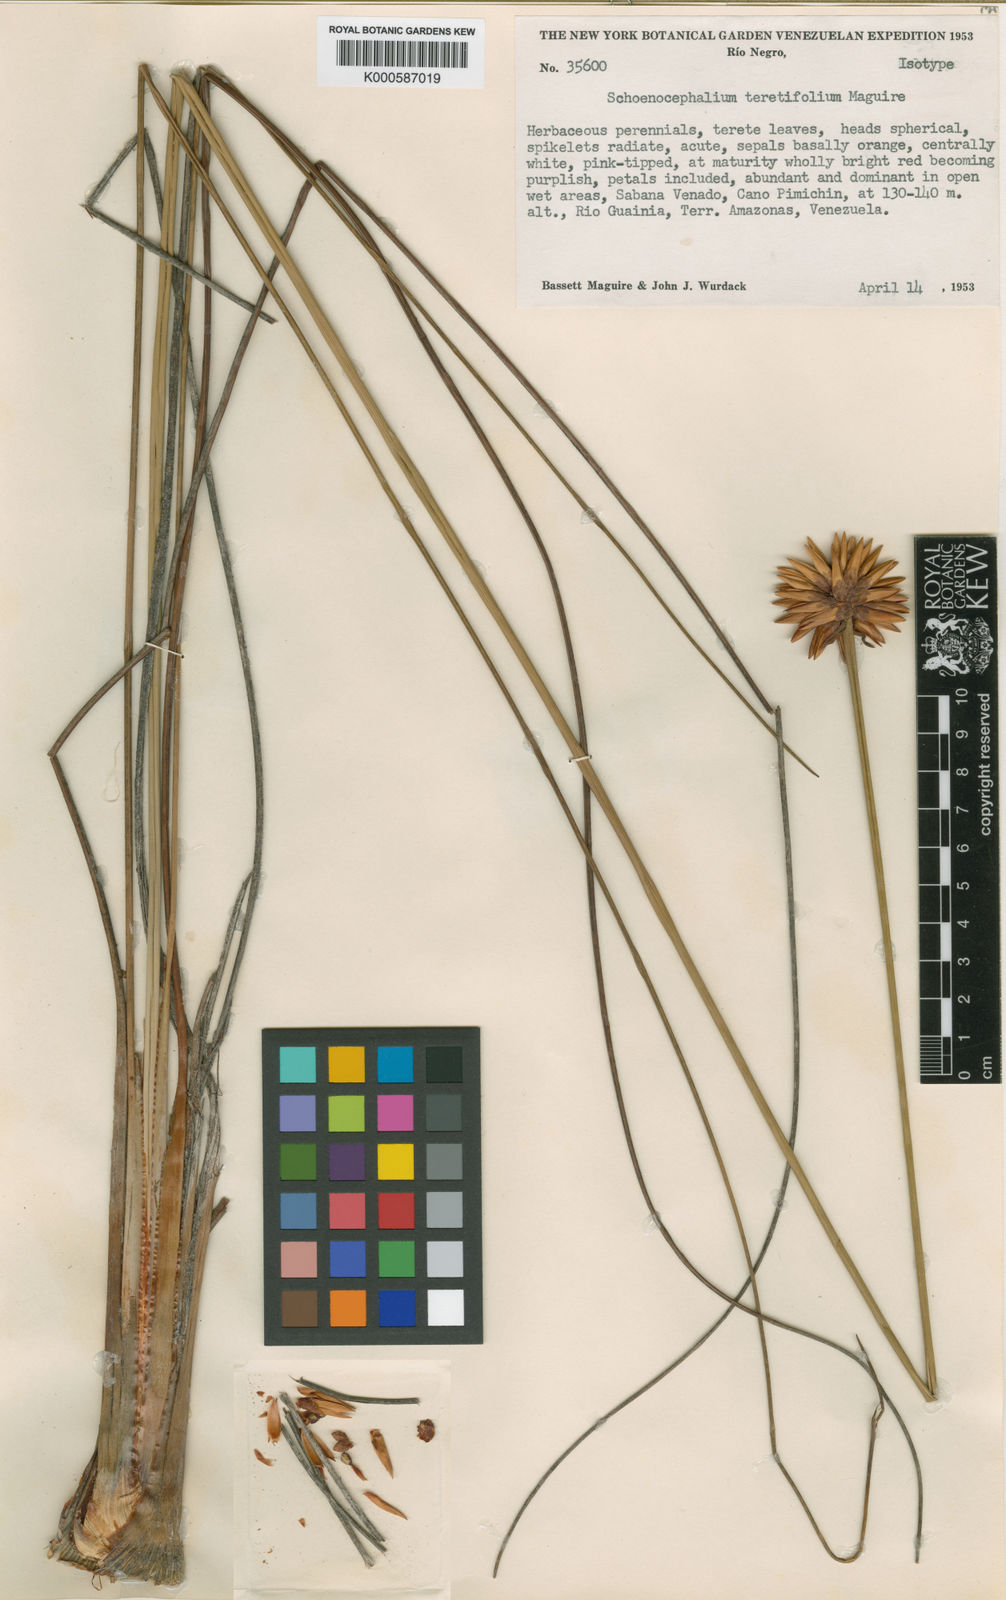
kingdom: Plantae
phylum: Tracheophyta
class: Liliopsida
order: Poales
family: Rapateaceae
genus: Schoenocephalium
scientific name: Schoenocephalium teretifolium
